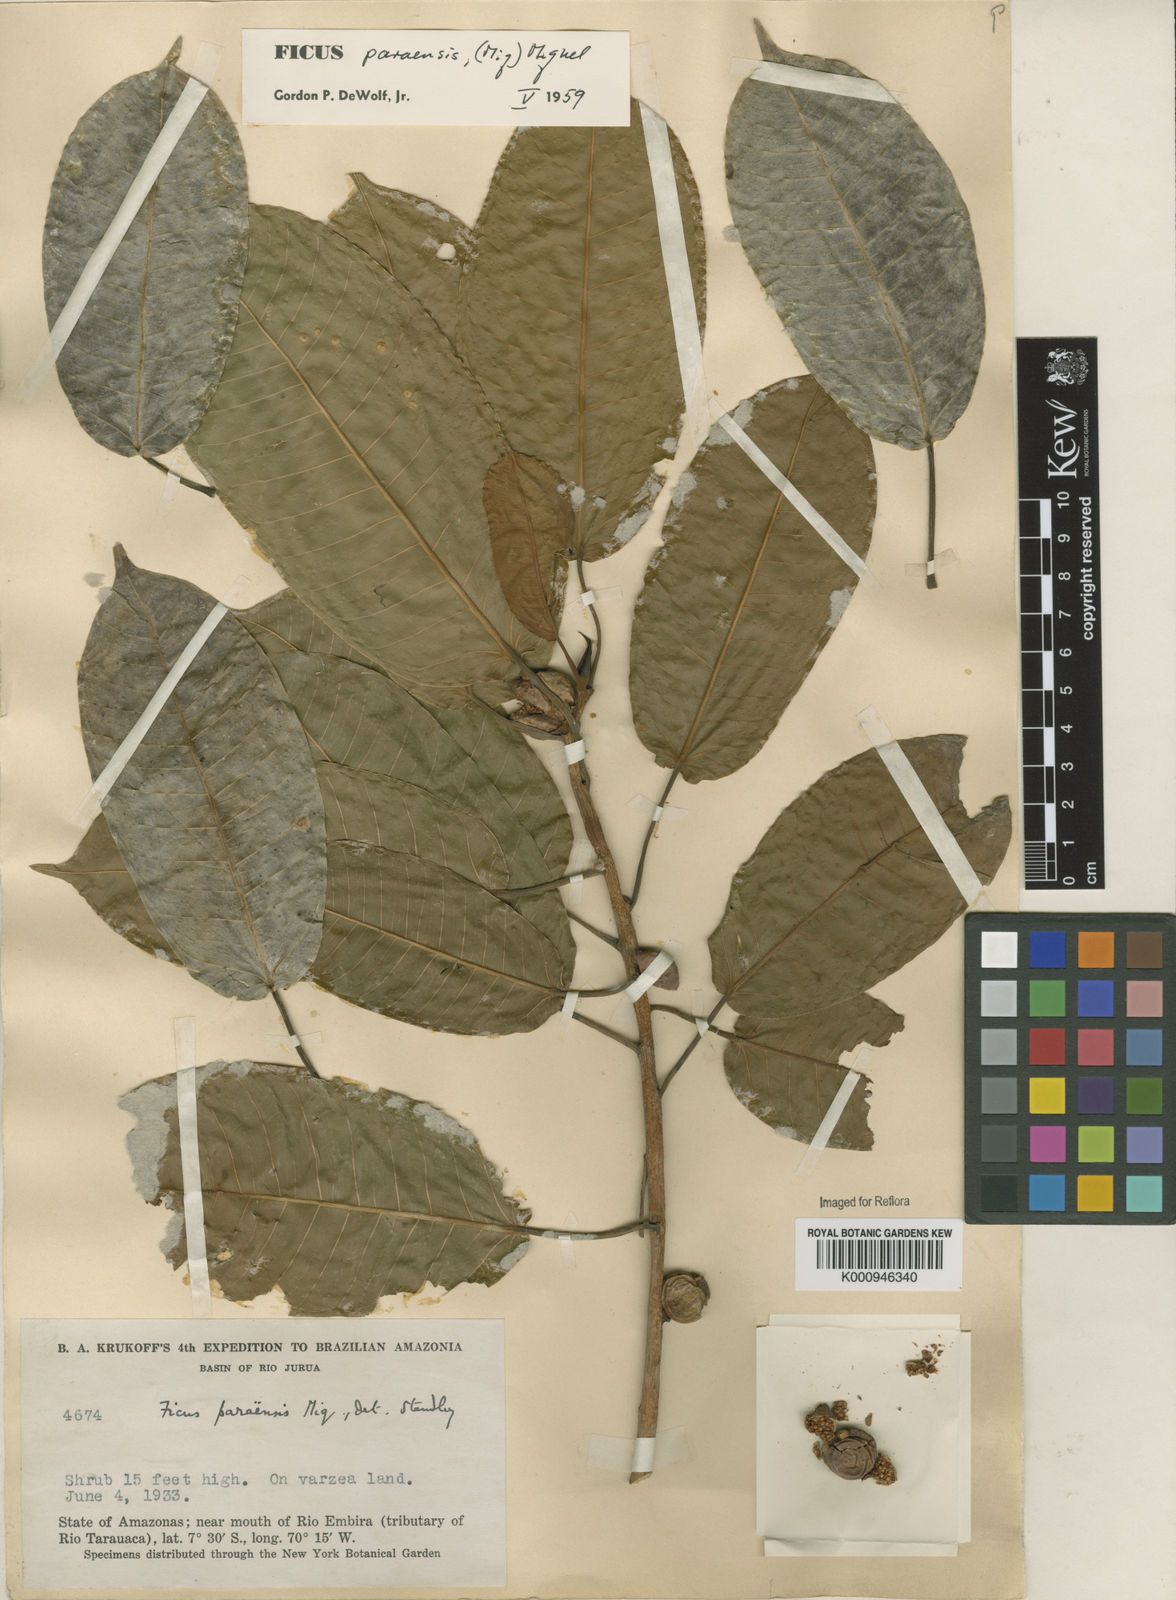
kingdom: Plantae
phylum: Tracheophyta
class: Magnoliopsida
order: Rosales
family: Moraceae
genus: Ficus
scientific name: Ficus paraensis
